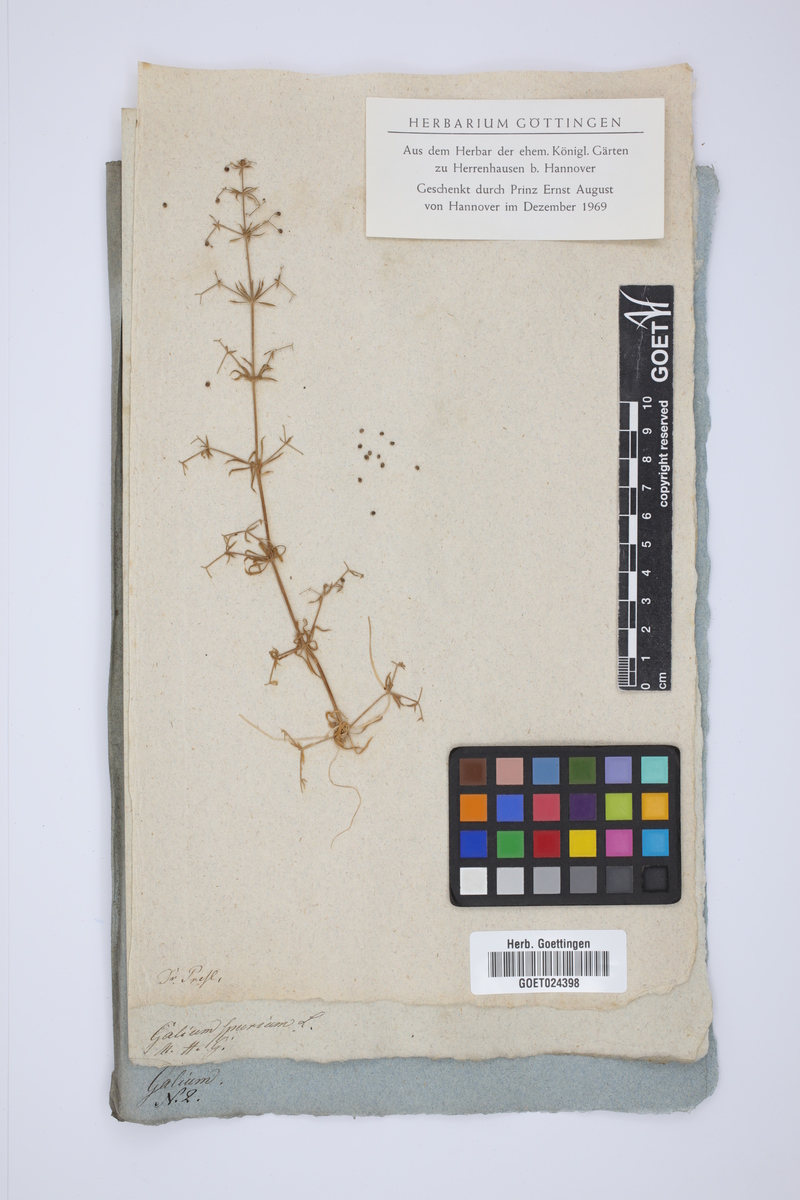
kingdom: Plantae
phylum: Tracheophyta
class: Magnoliopsida
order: Gentianales
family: Rubiaceae
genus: Galium
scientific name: Galium spurium
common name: False cleavers
